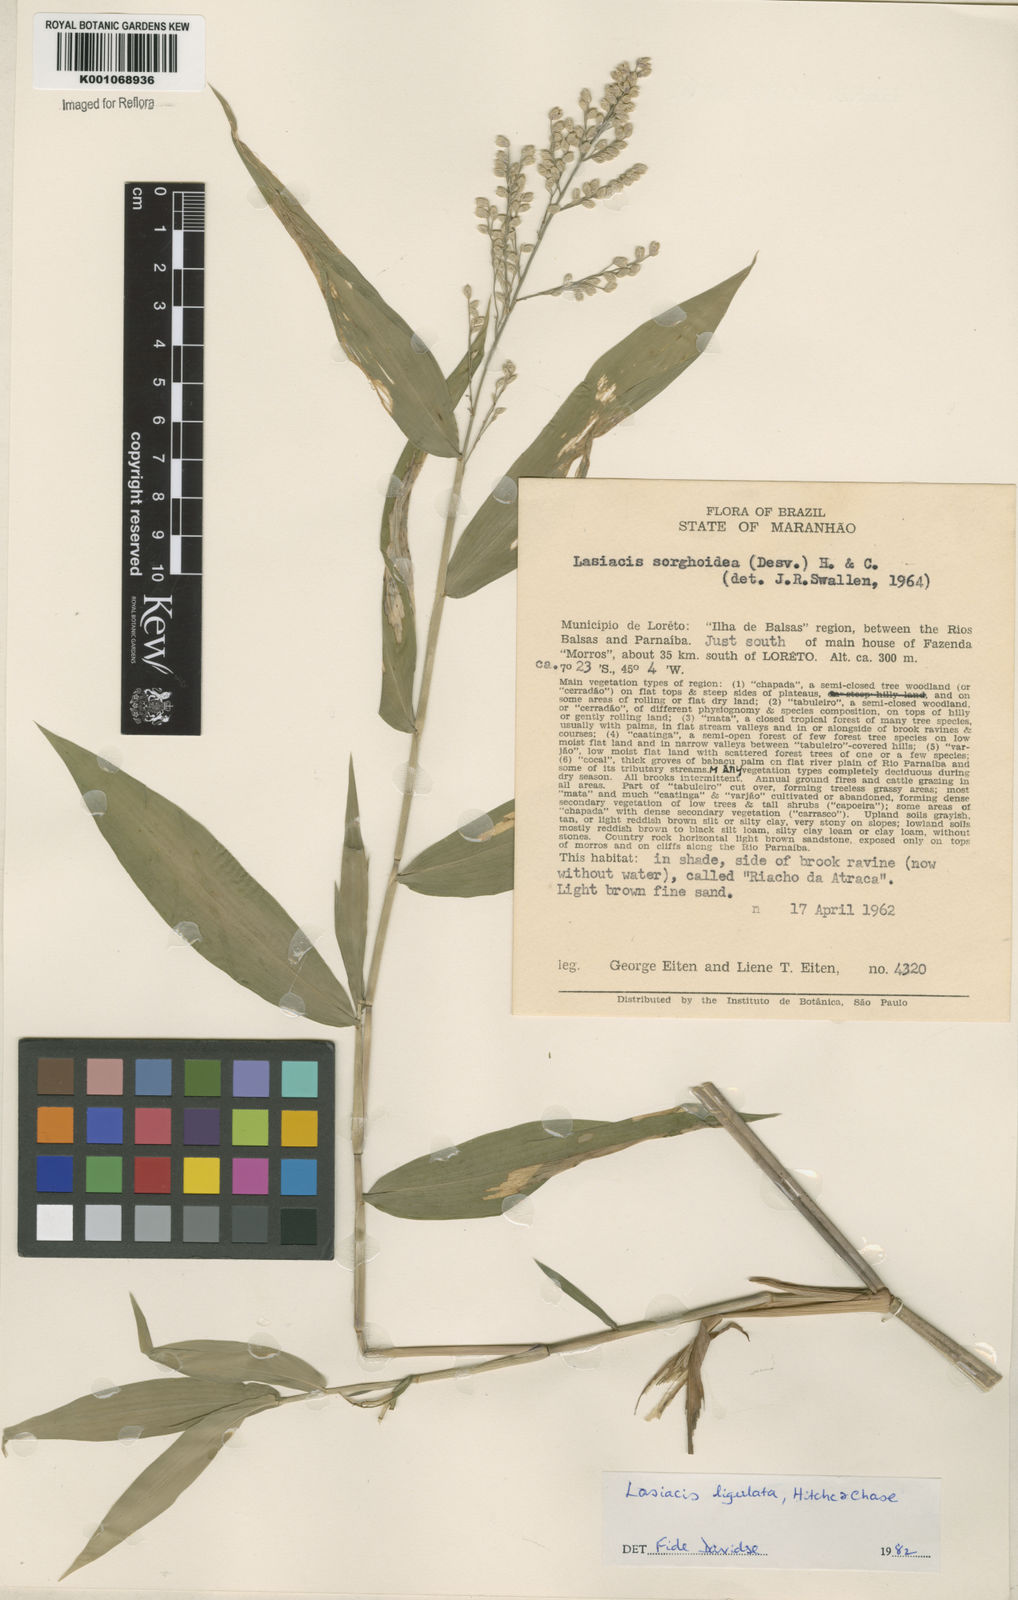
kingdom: Plantae
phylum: Tracheophyta
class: Liliopsida
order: Poales
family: Poaceae
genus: Lasiacis
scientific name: Lasiacis ligulata
